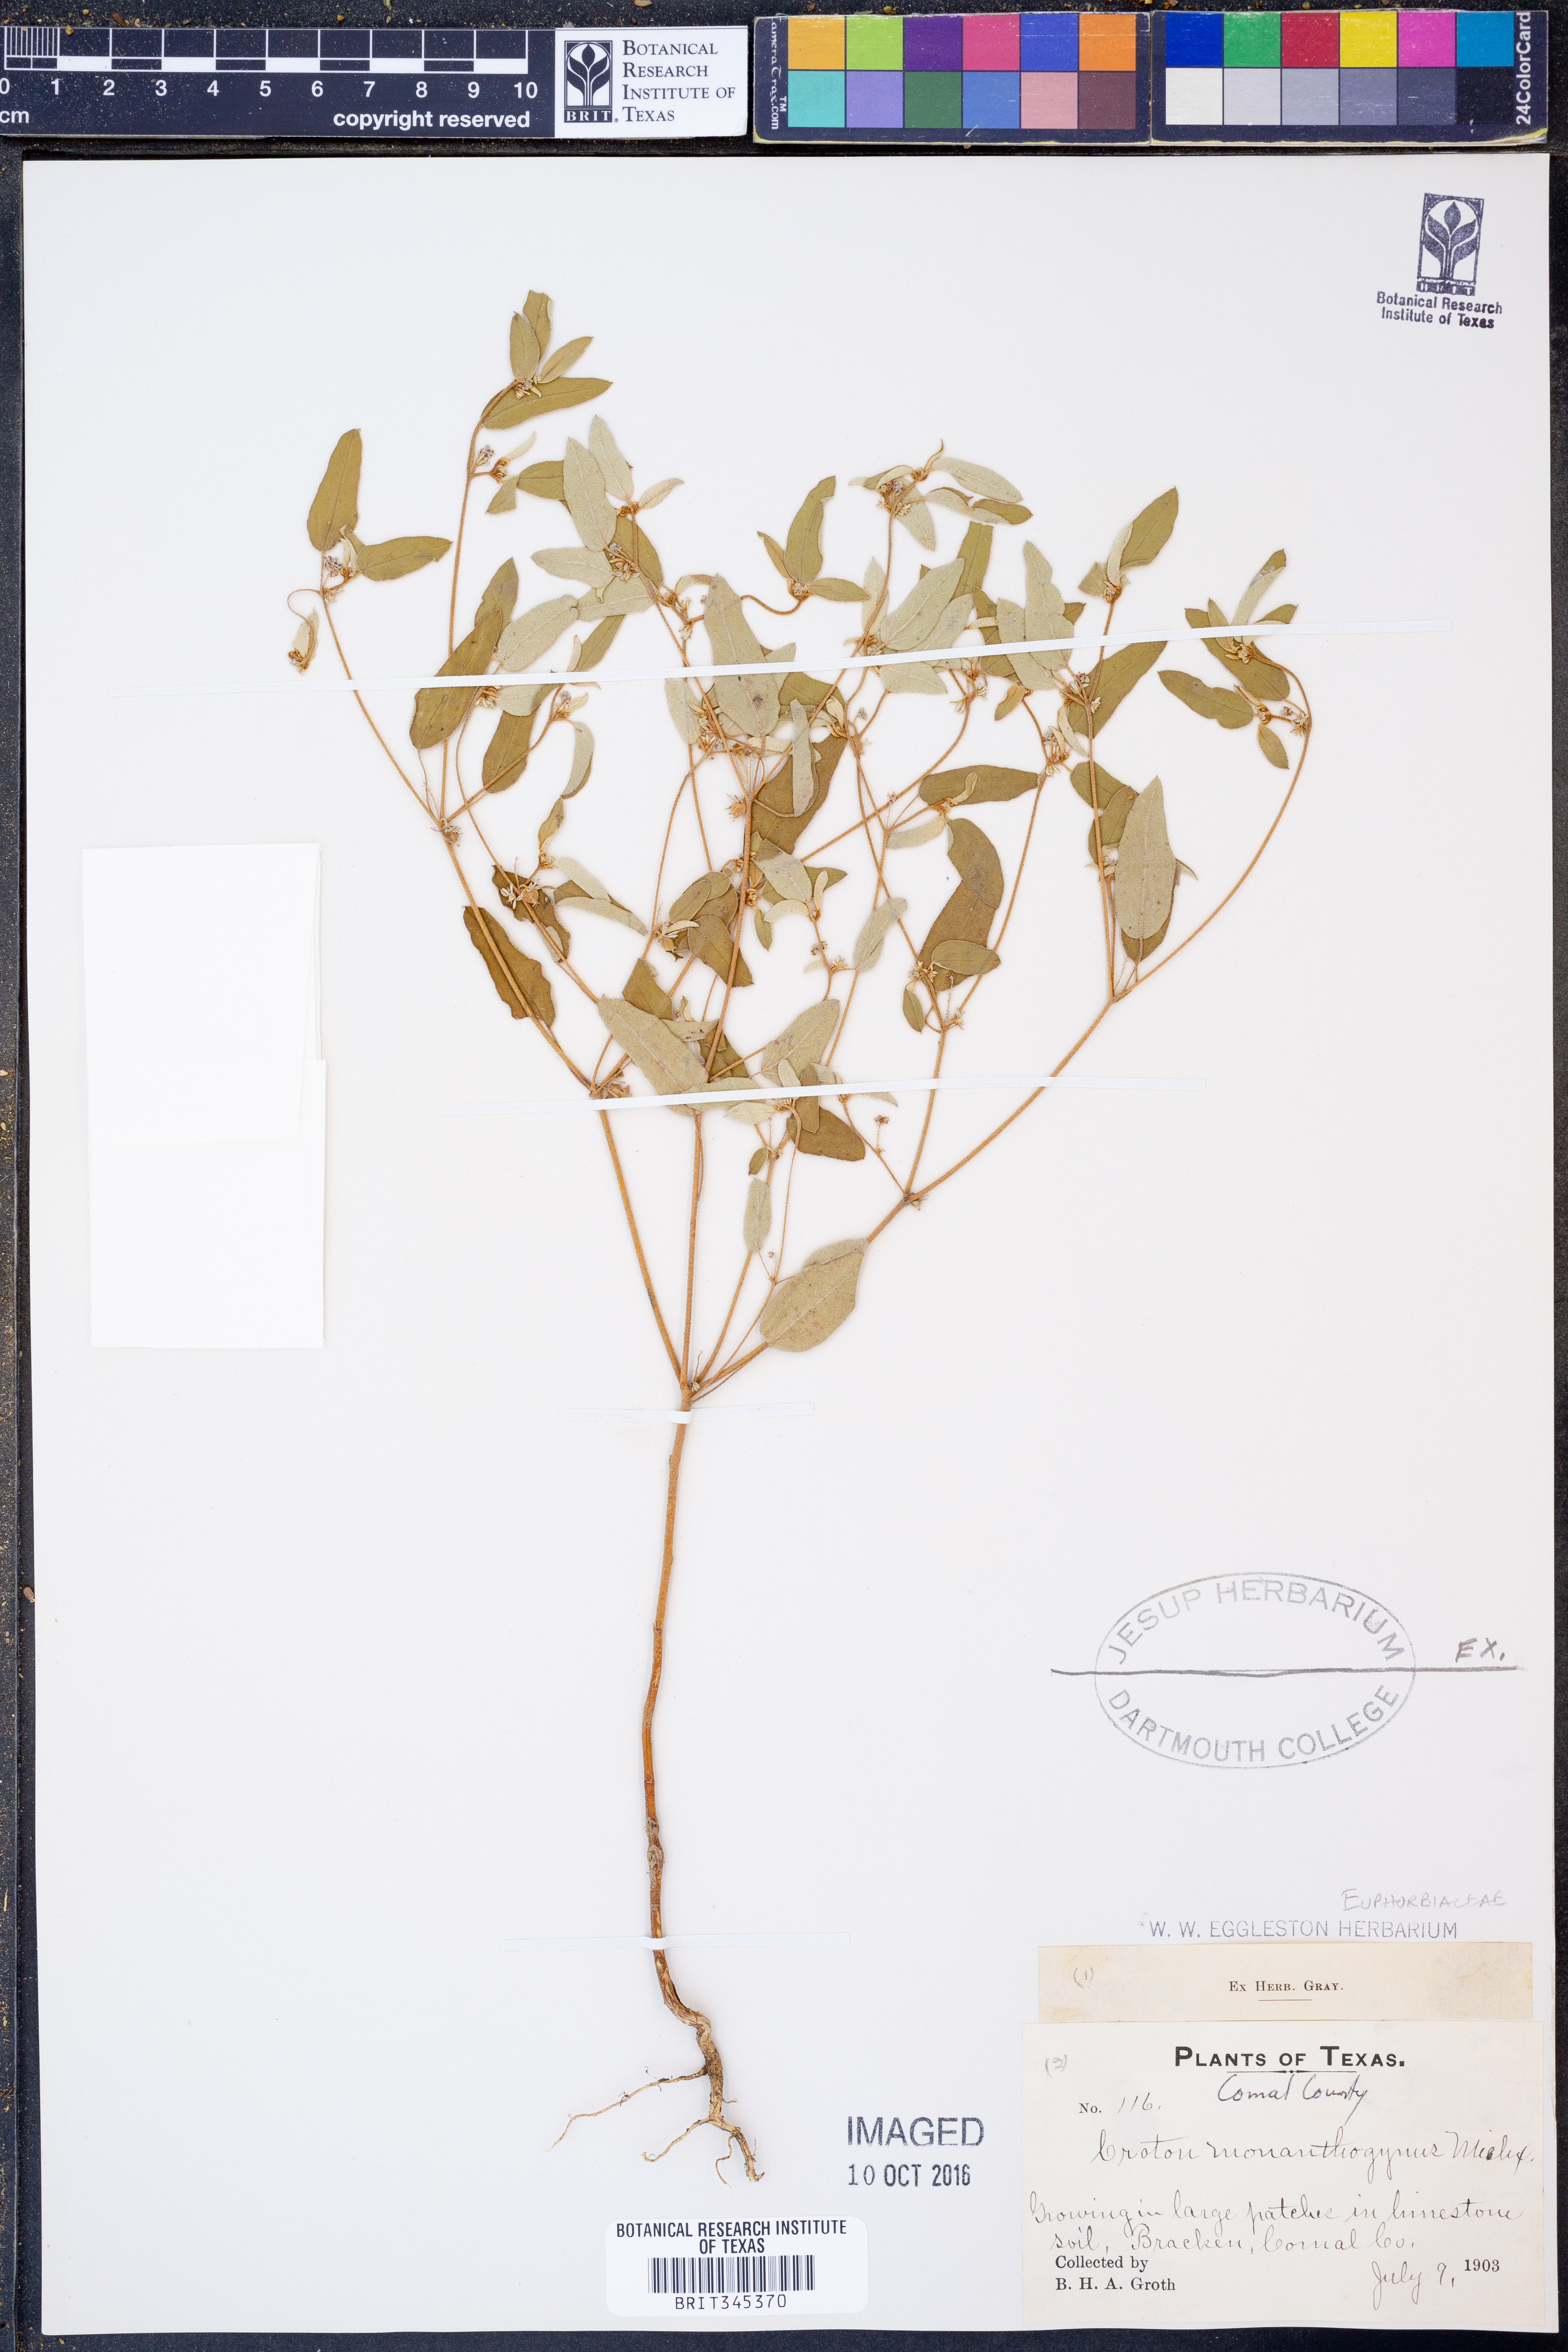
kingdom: Plantae
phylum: Tracheophyta
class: Magnoliopsida
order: Malpighiales
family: Euphorbiaceae
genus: Croton
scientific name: Croton monanthogynus
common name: One-seed croton
